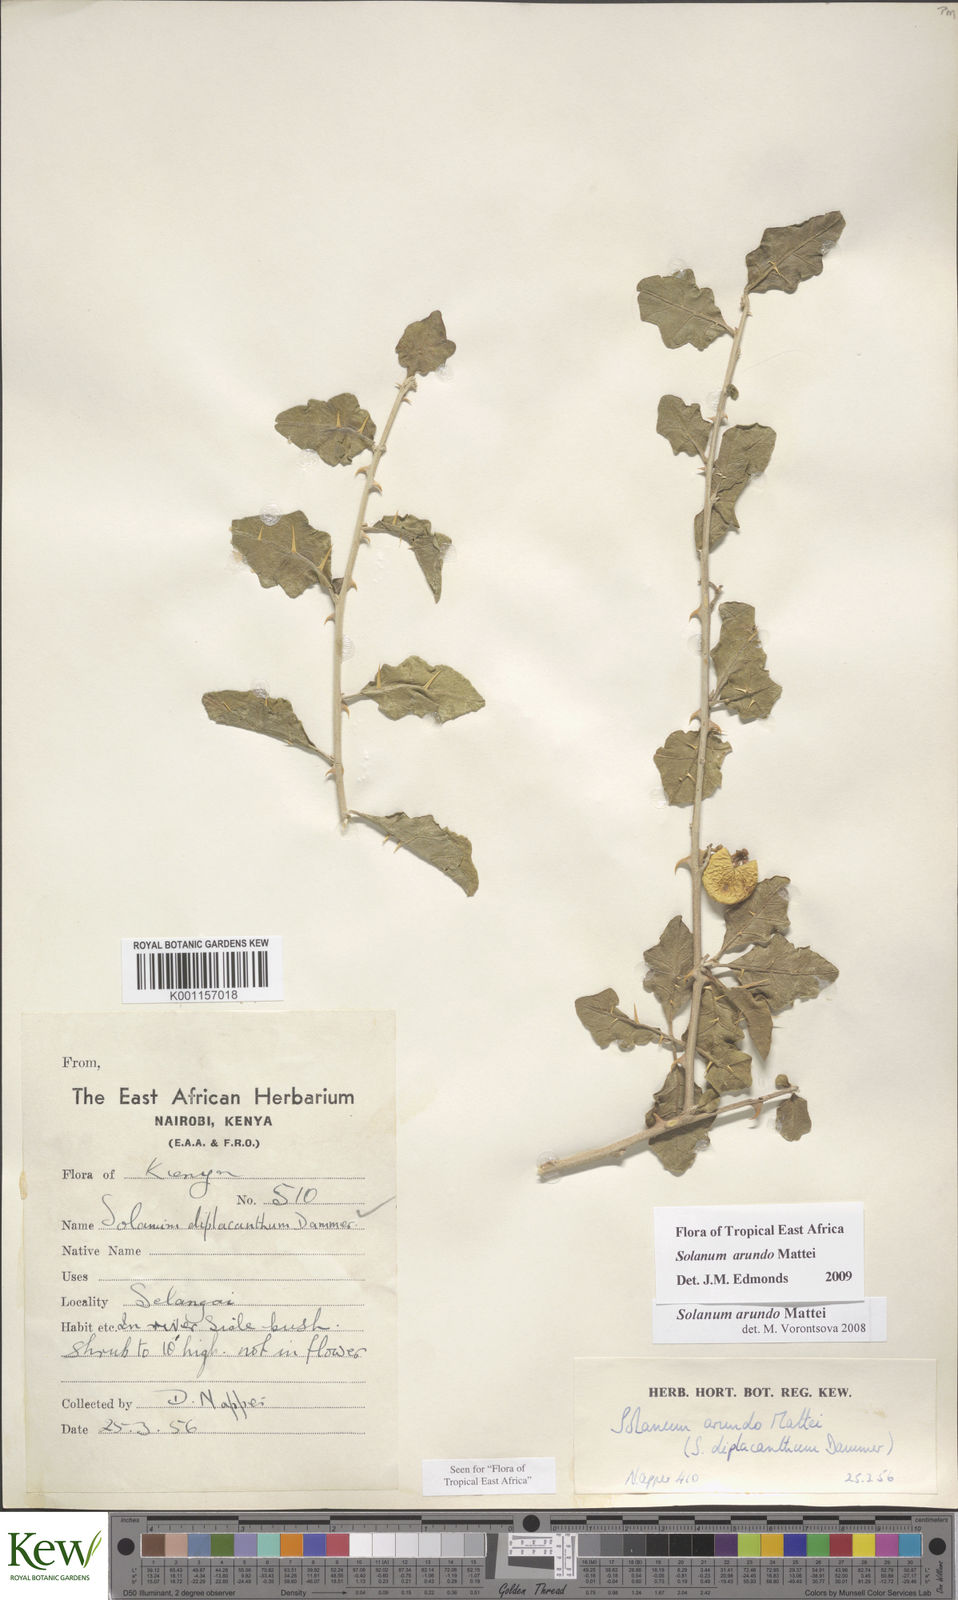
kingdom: Plantae
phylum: Tracheophyta
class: Magnoliopsida
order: Solanales
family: Solanaceae
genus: Solanum
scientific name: Solanum arundo
